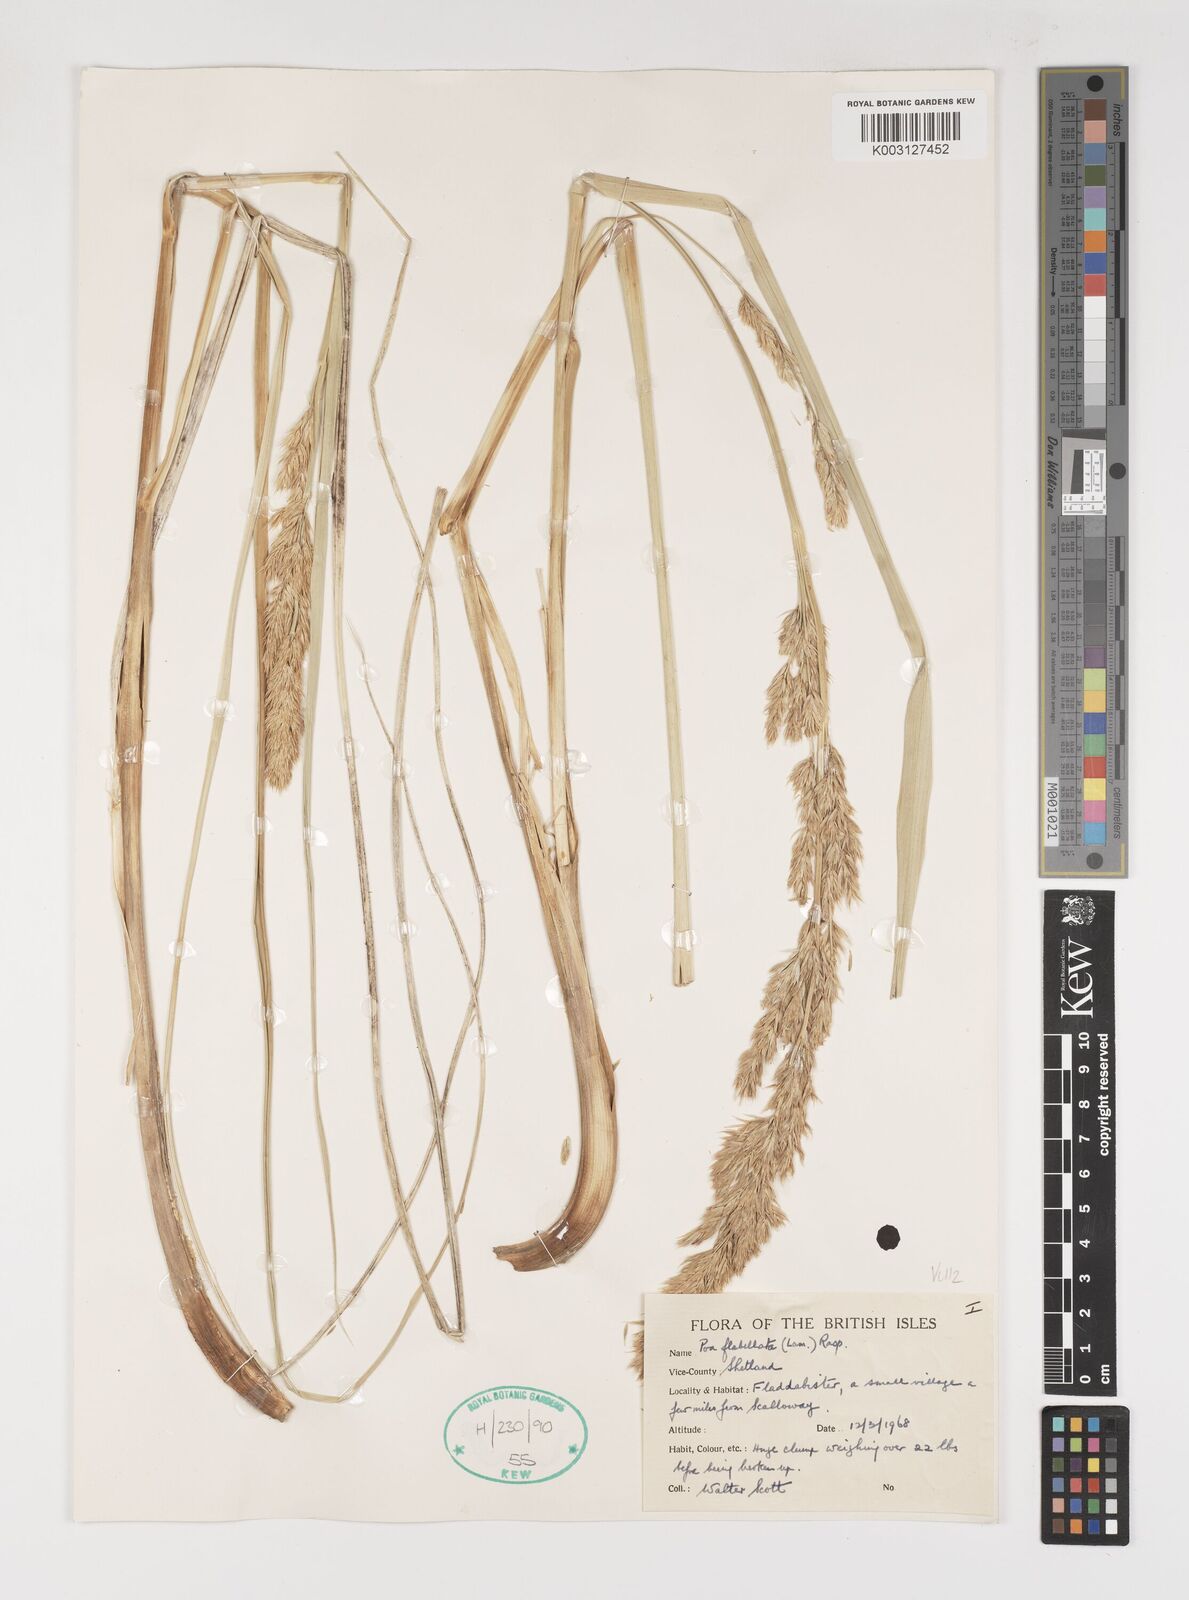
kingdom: Plantae
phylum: Tracheophyta
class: Liliopsida
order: Poales
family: Poaceae
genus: Poa
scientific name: Poa flabellata
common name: Tussac-grass
